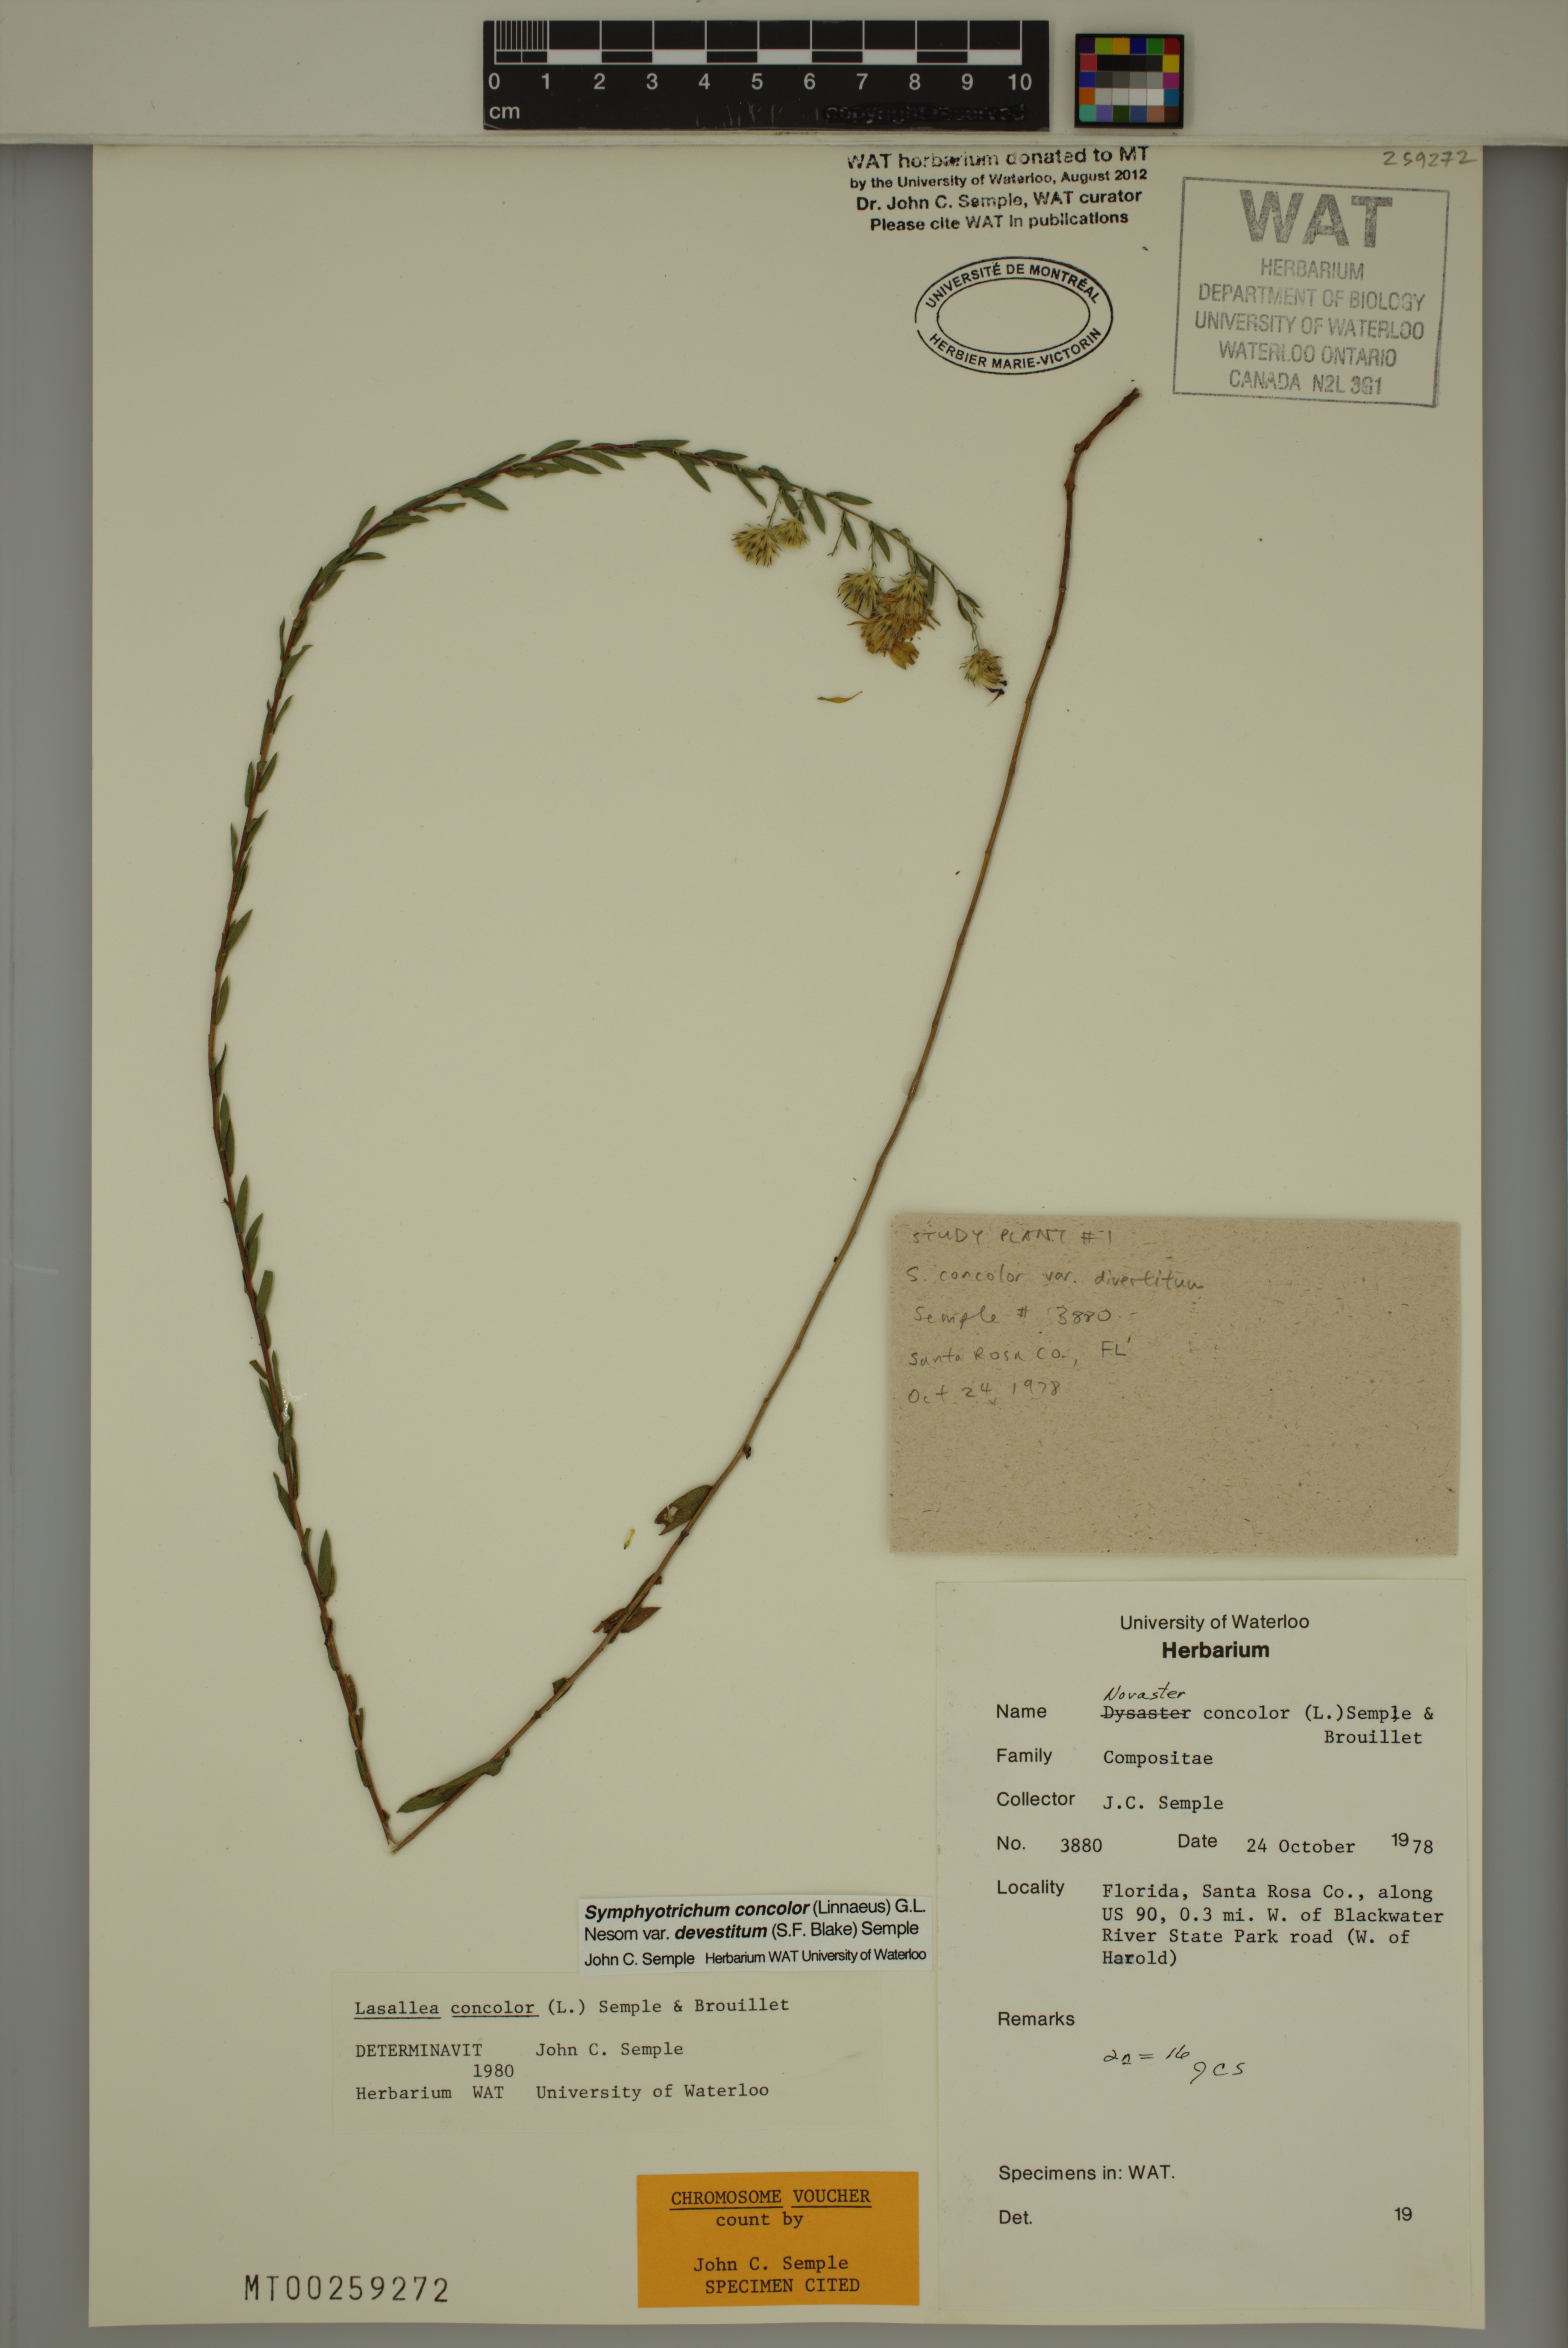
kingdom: Plantae
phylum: Tracheophyta
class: Magnoliopsida
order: Asterales
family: Asteraceae
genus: Symphyotrichum
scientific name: Symphyotrichum concolor
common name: Eastern silver aster
